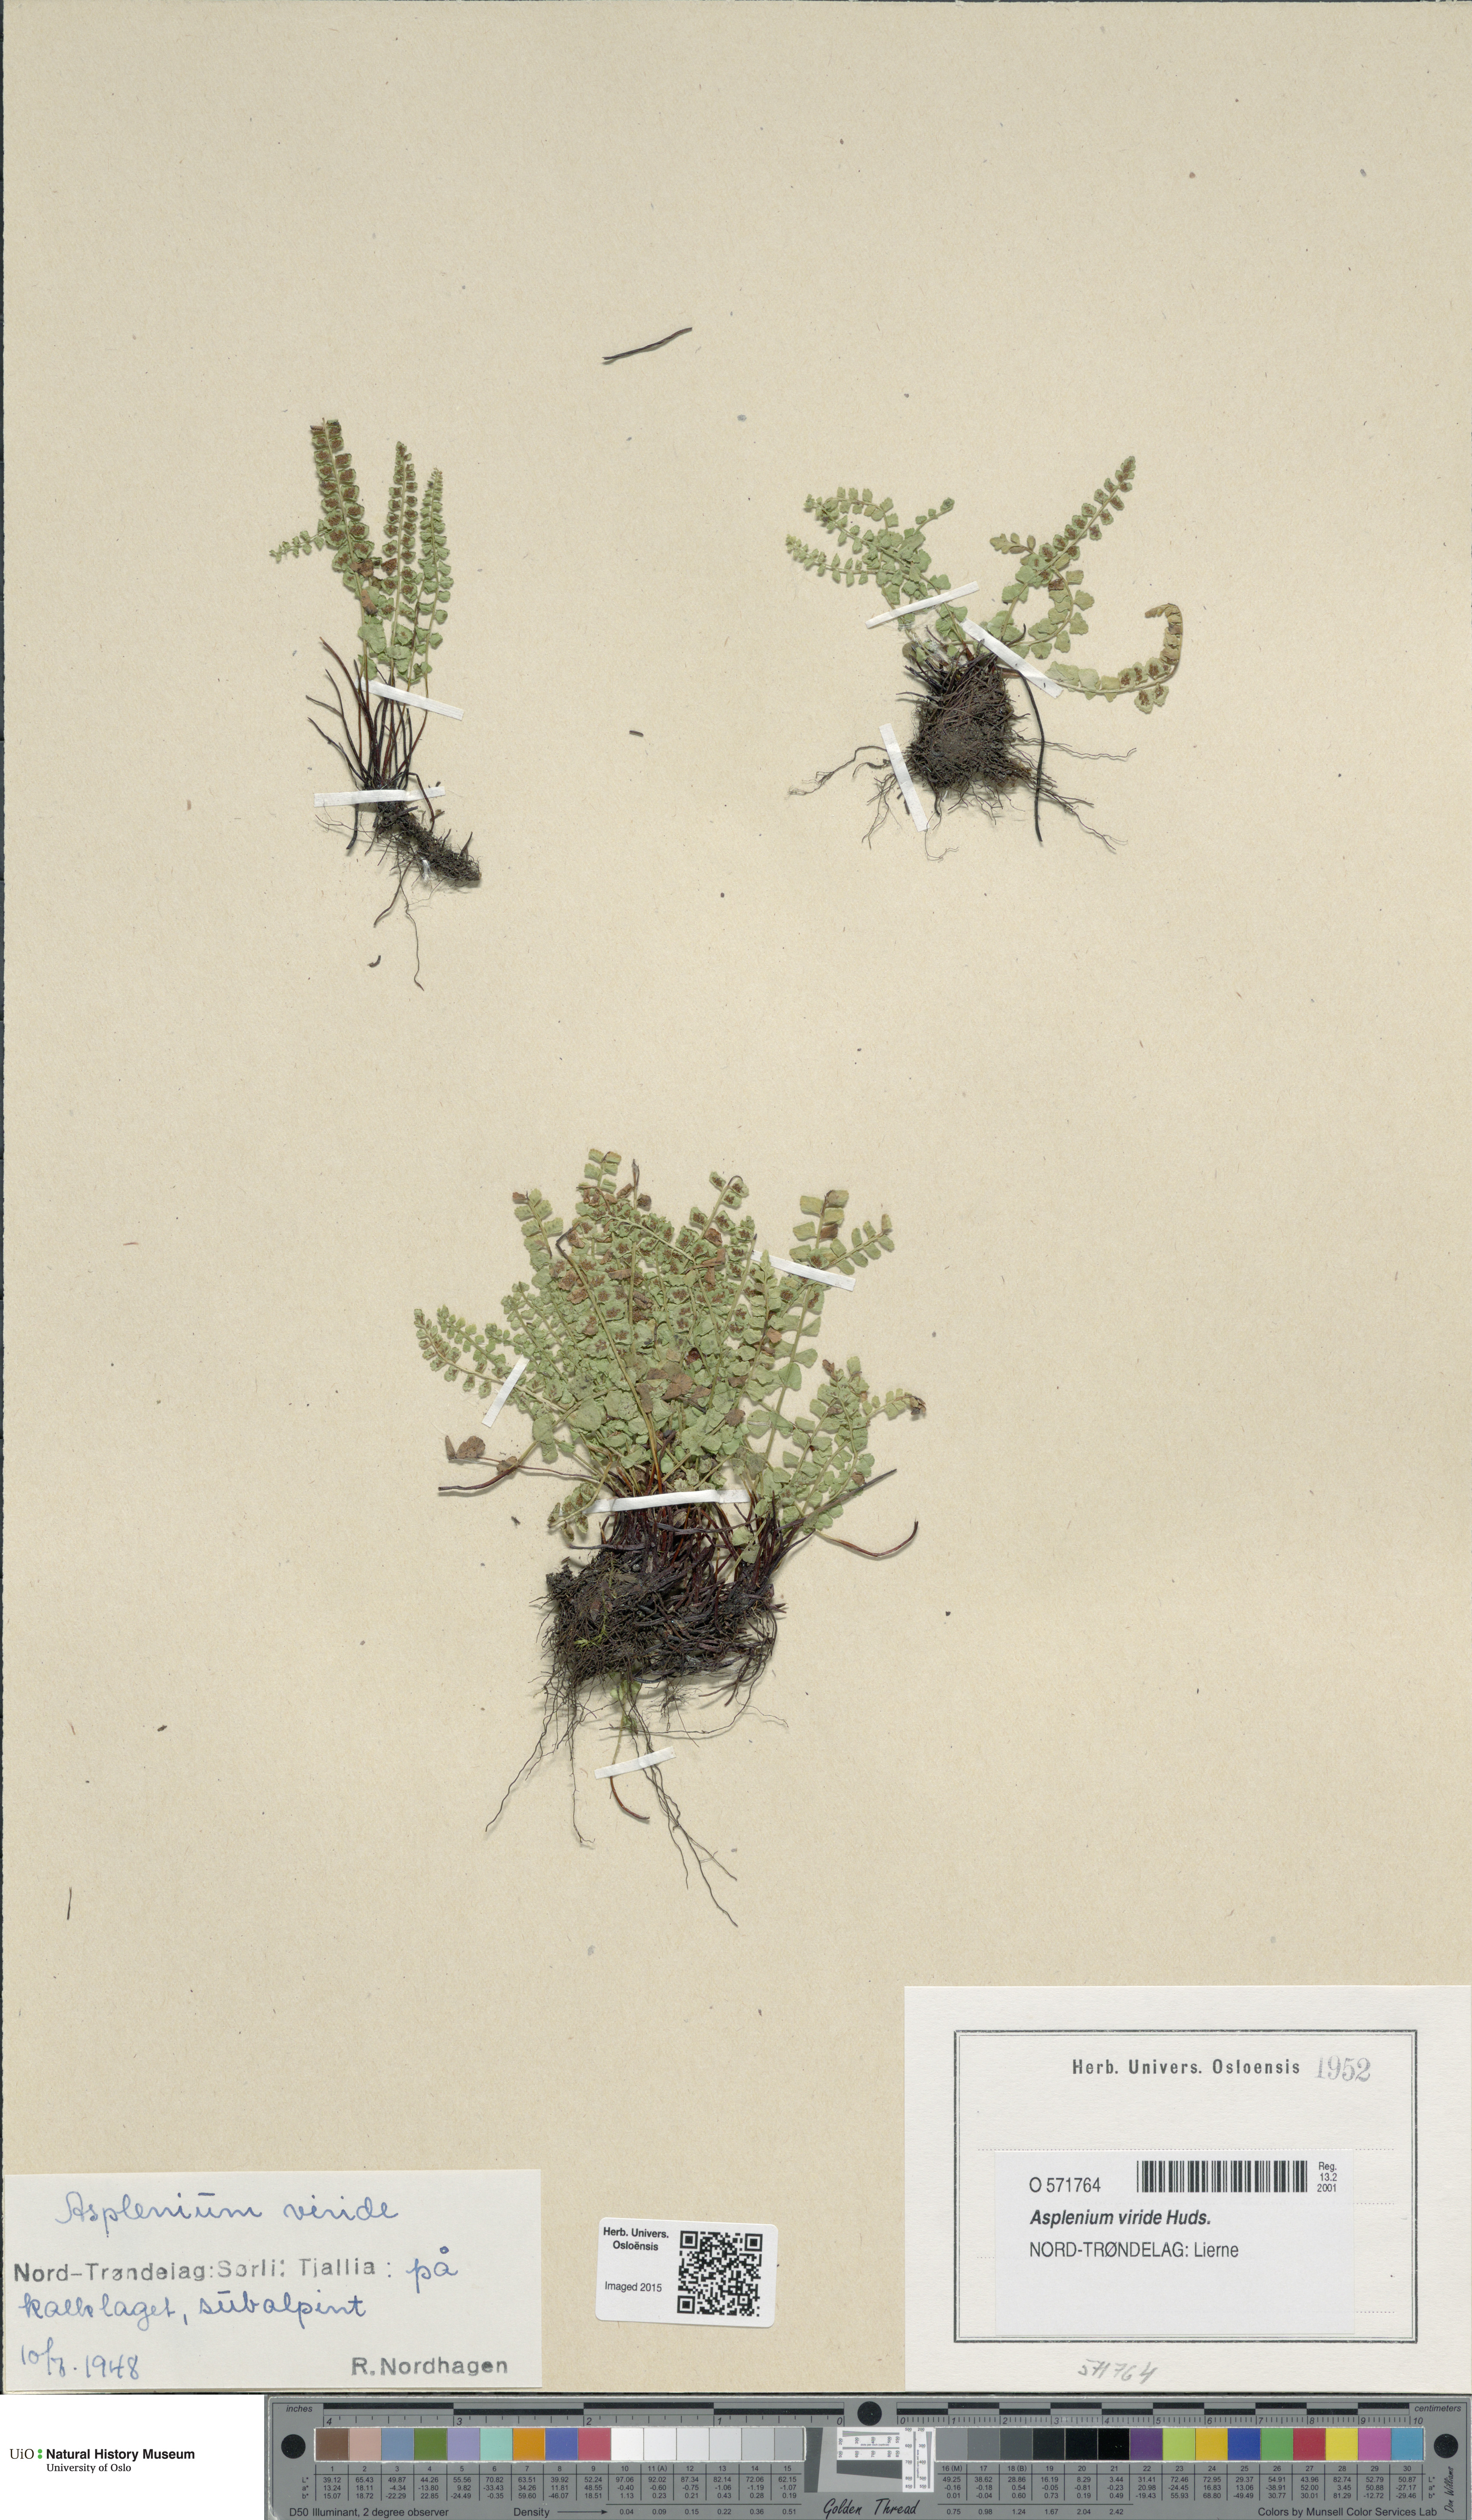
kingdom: Plantae
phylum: Tracheophyta
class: Polypodiopsida
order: Polypodiales
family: Aspleniaceae
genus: Asplenium
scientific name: Asplenium viride
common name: Green spleenwort
